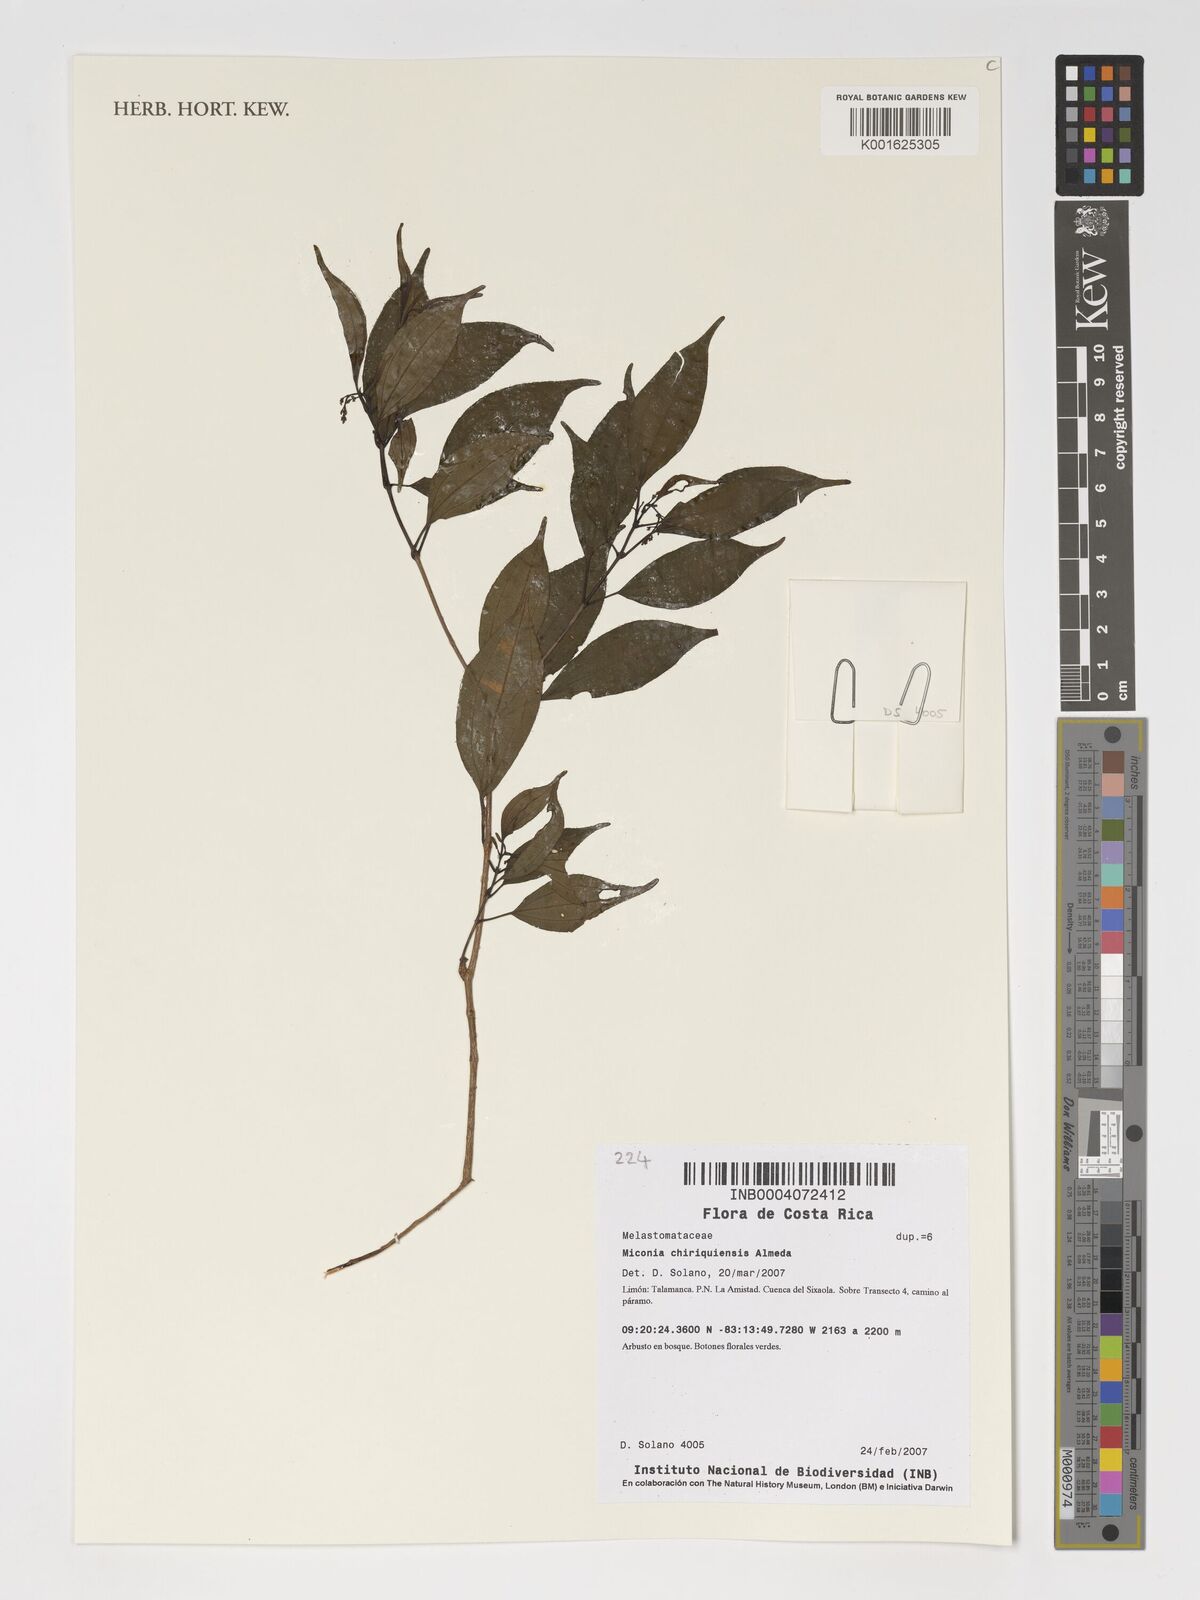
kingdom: Plantae
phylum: Tracheophyta
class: Magnoliopsida
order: Myrtales
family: Melastomataceae
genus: Miconia
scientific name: Miconia chiriquiensis
